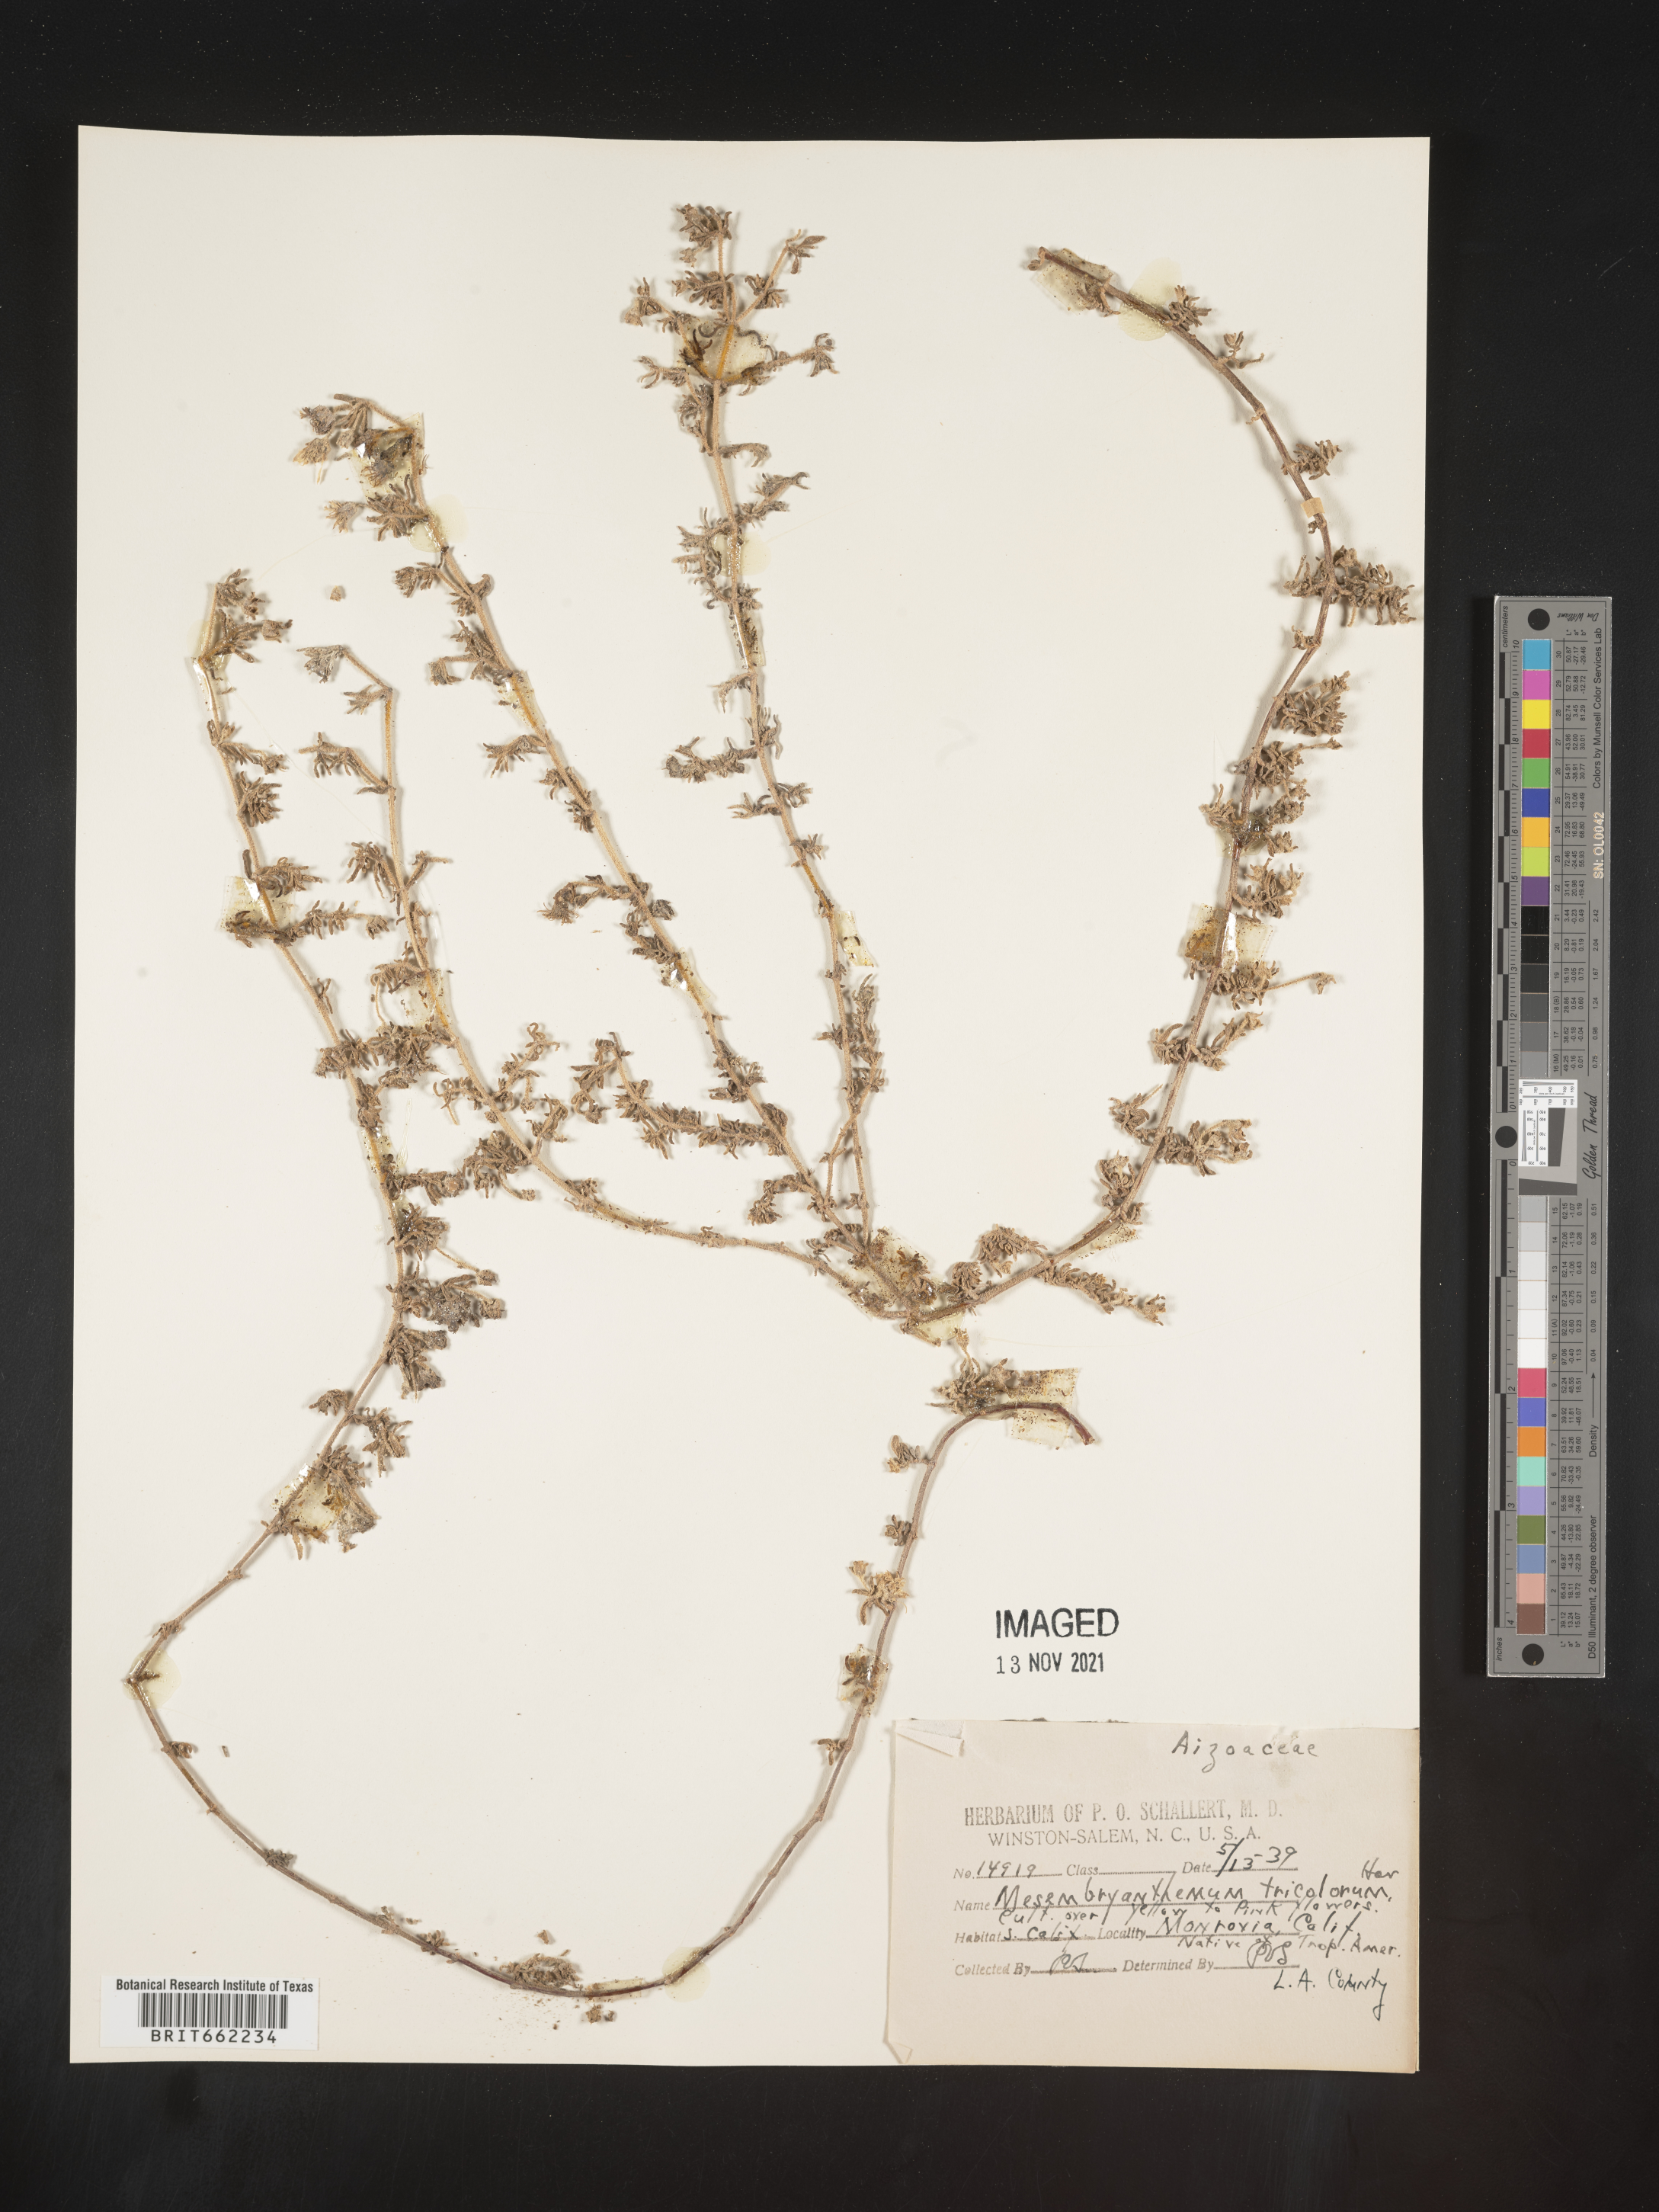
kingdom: Plantae
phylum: Tracheophyta
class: Magnoliopsida
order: Caryophyllales
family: Aizoaceae
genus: Mesembryanthemum
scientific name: Mesembryanthemum
